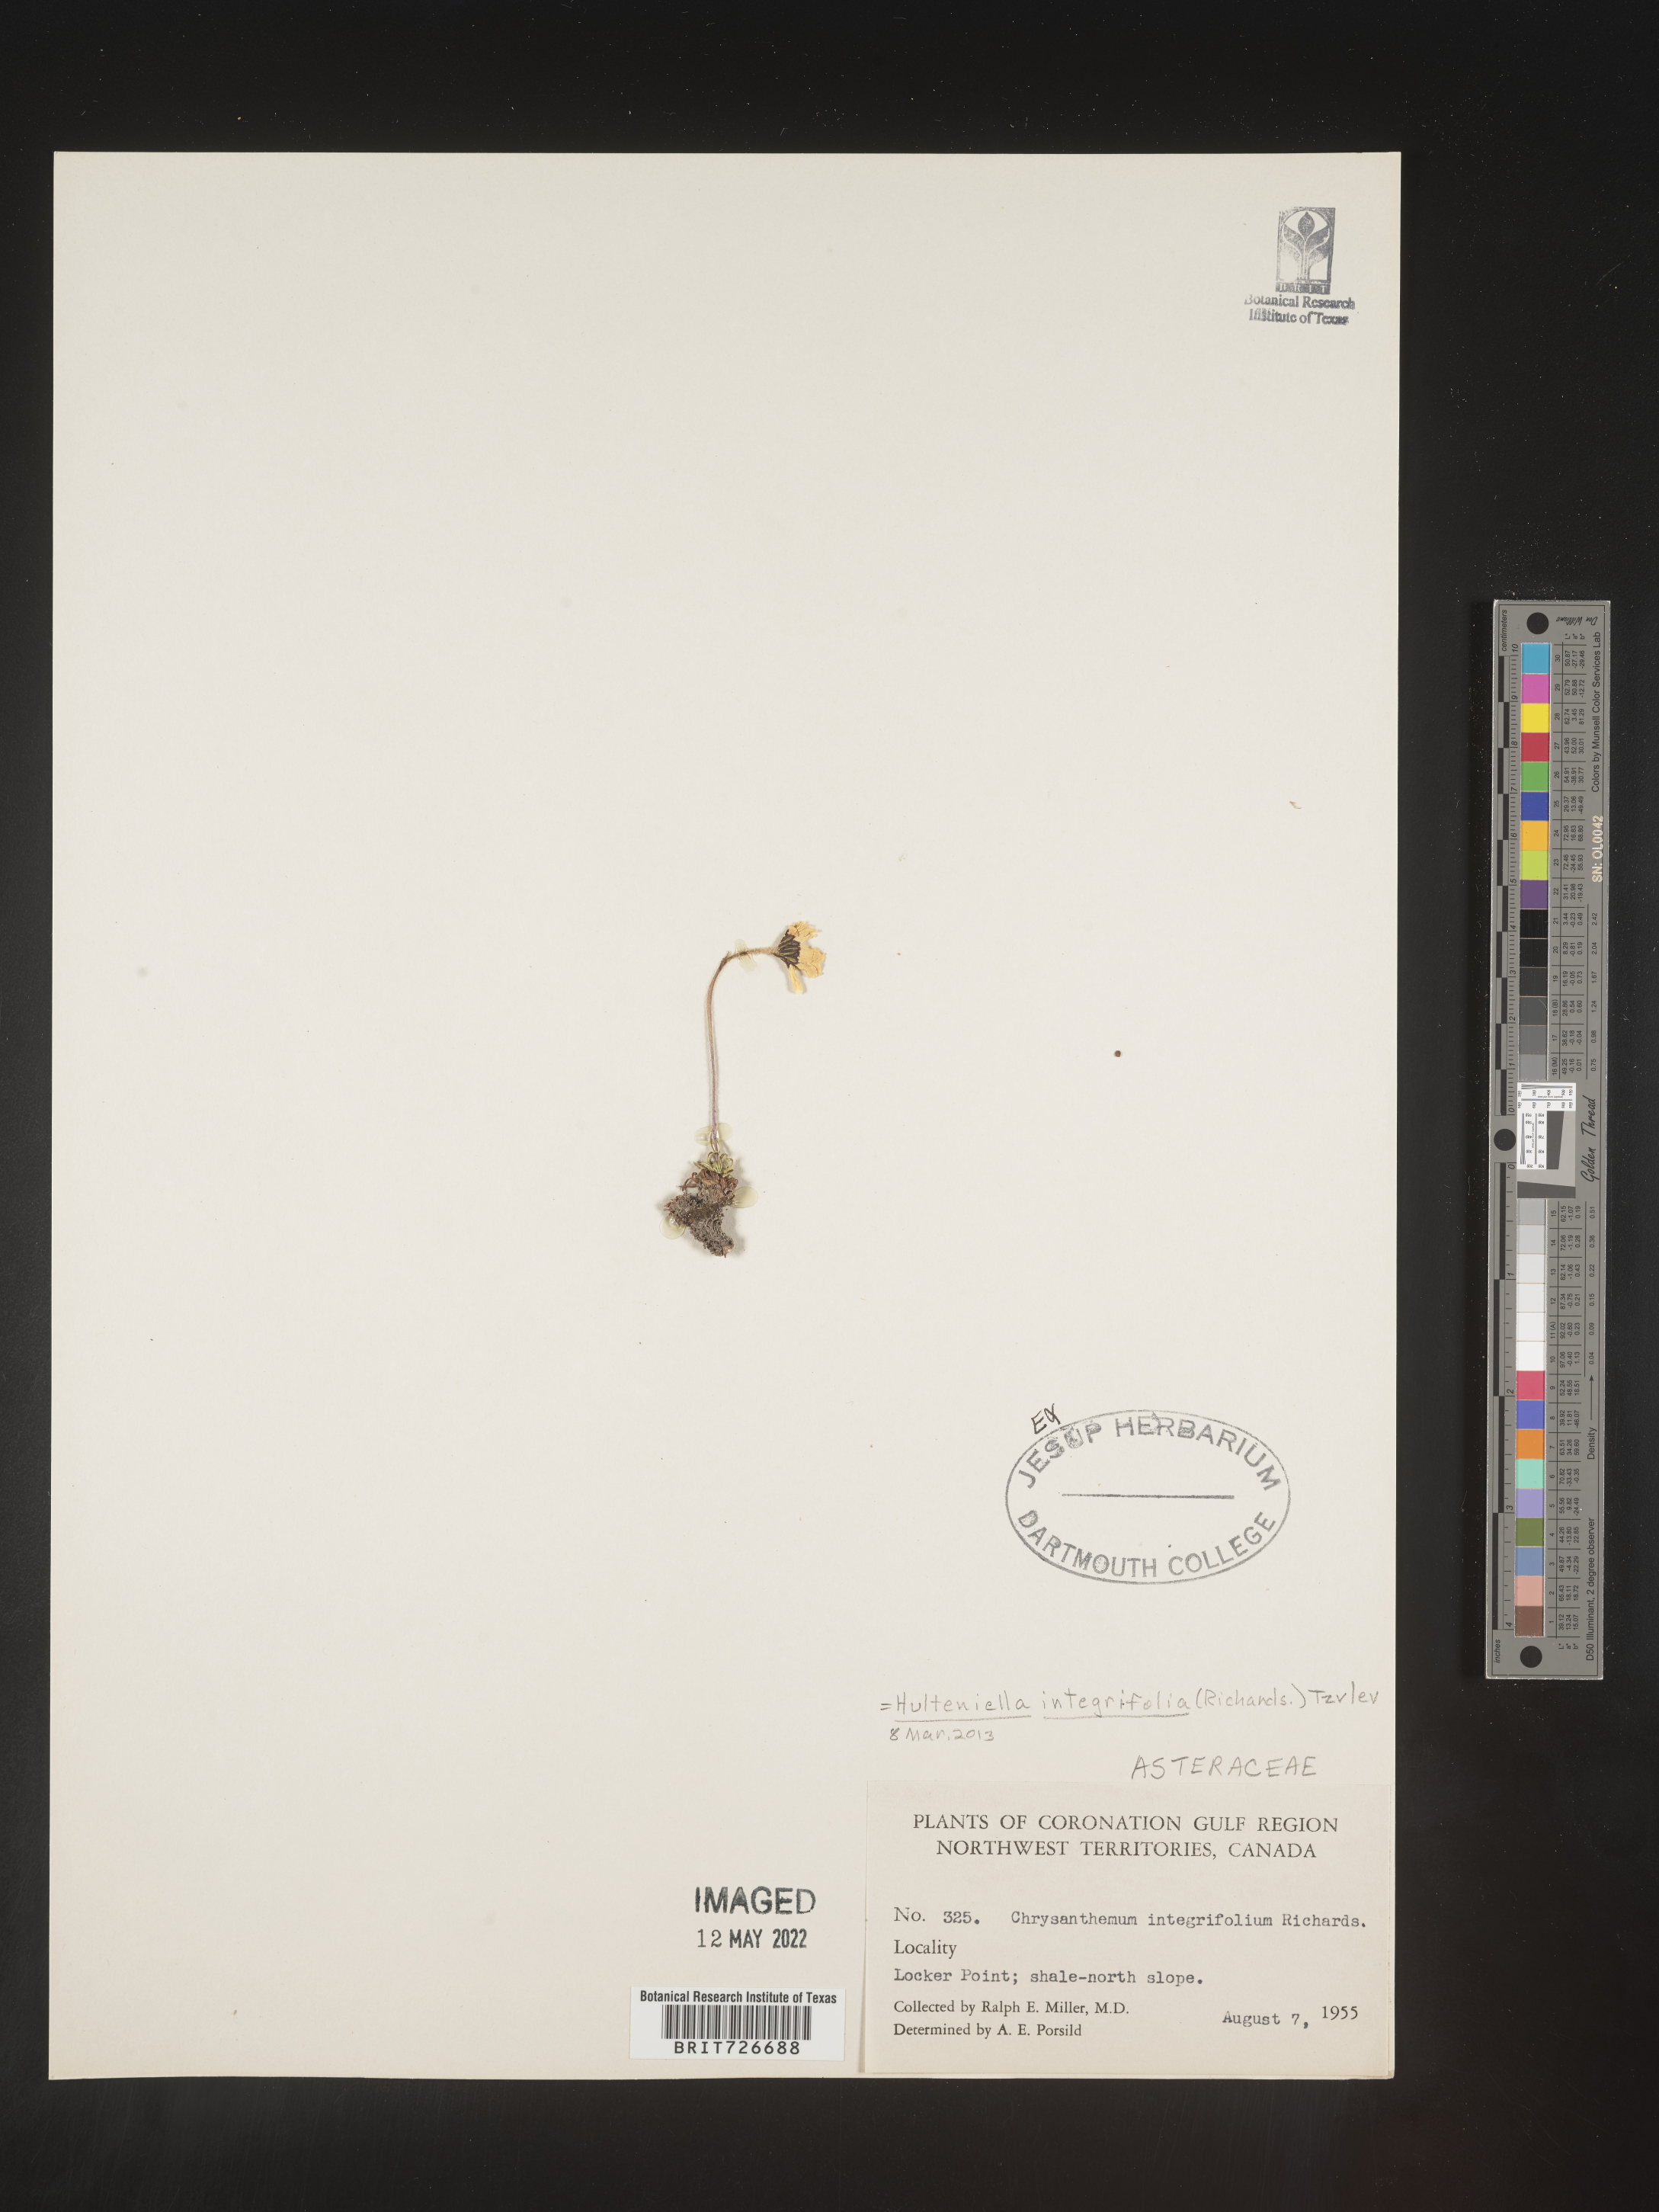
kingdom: Plantae
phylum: Tracheophyta
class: Magnoliopsida
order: Asterales
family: Asteraceae
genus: Chrysanthemum
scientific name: Chrysanthemum
